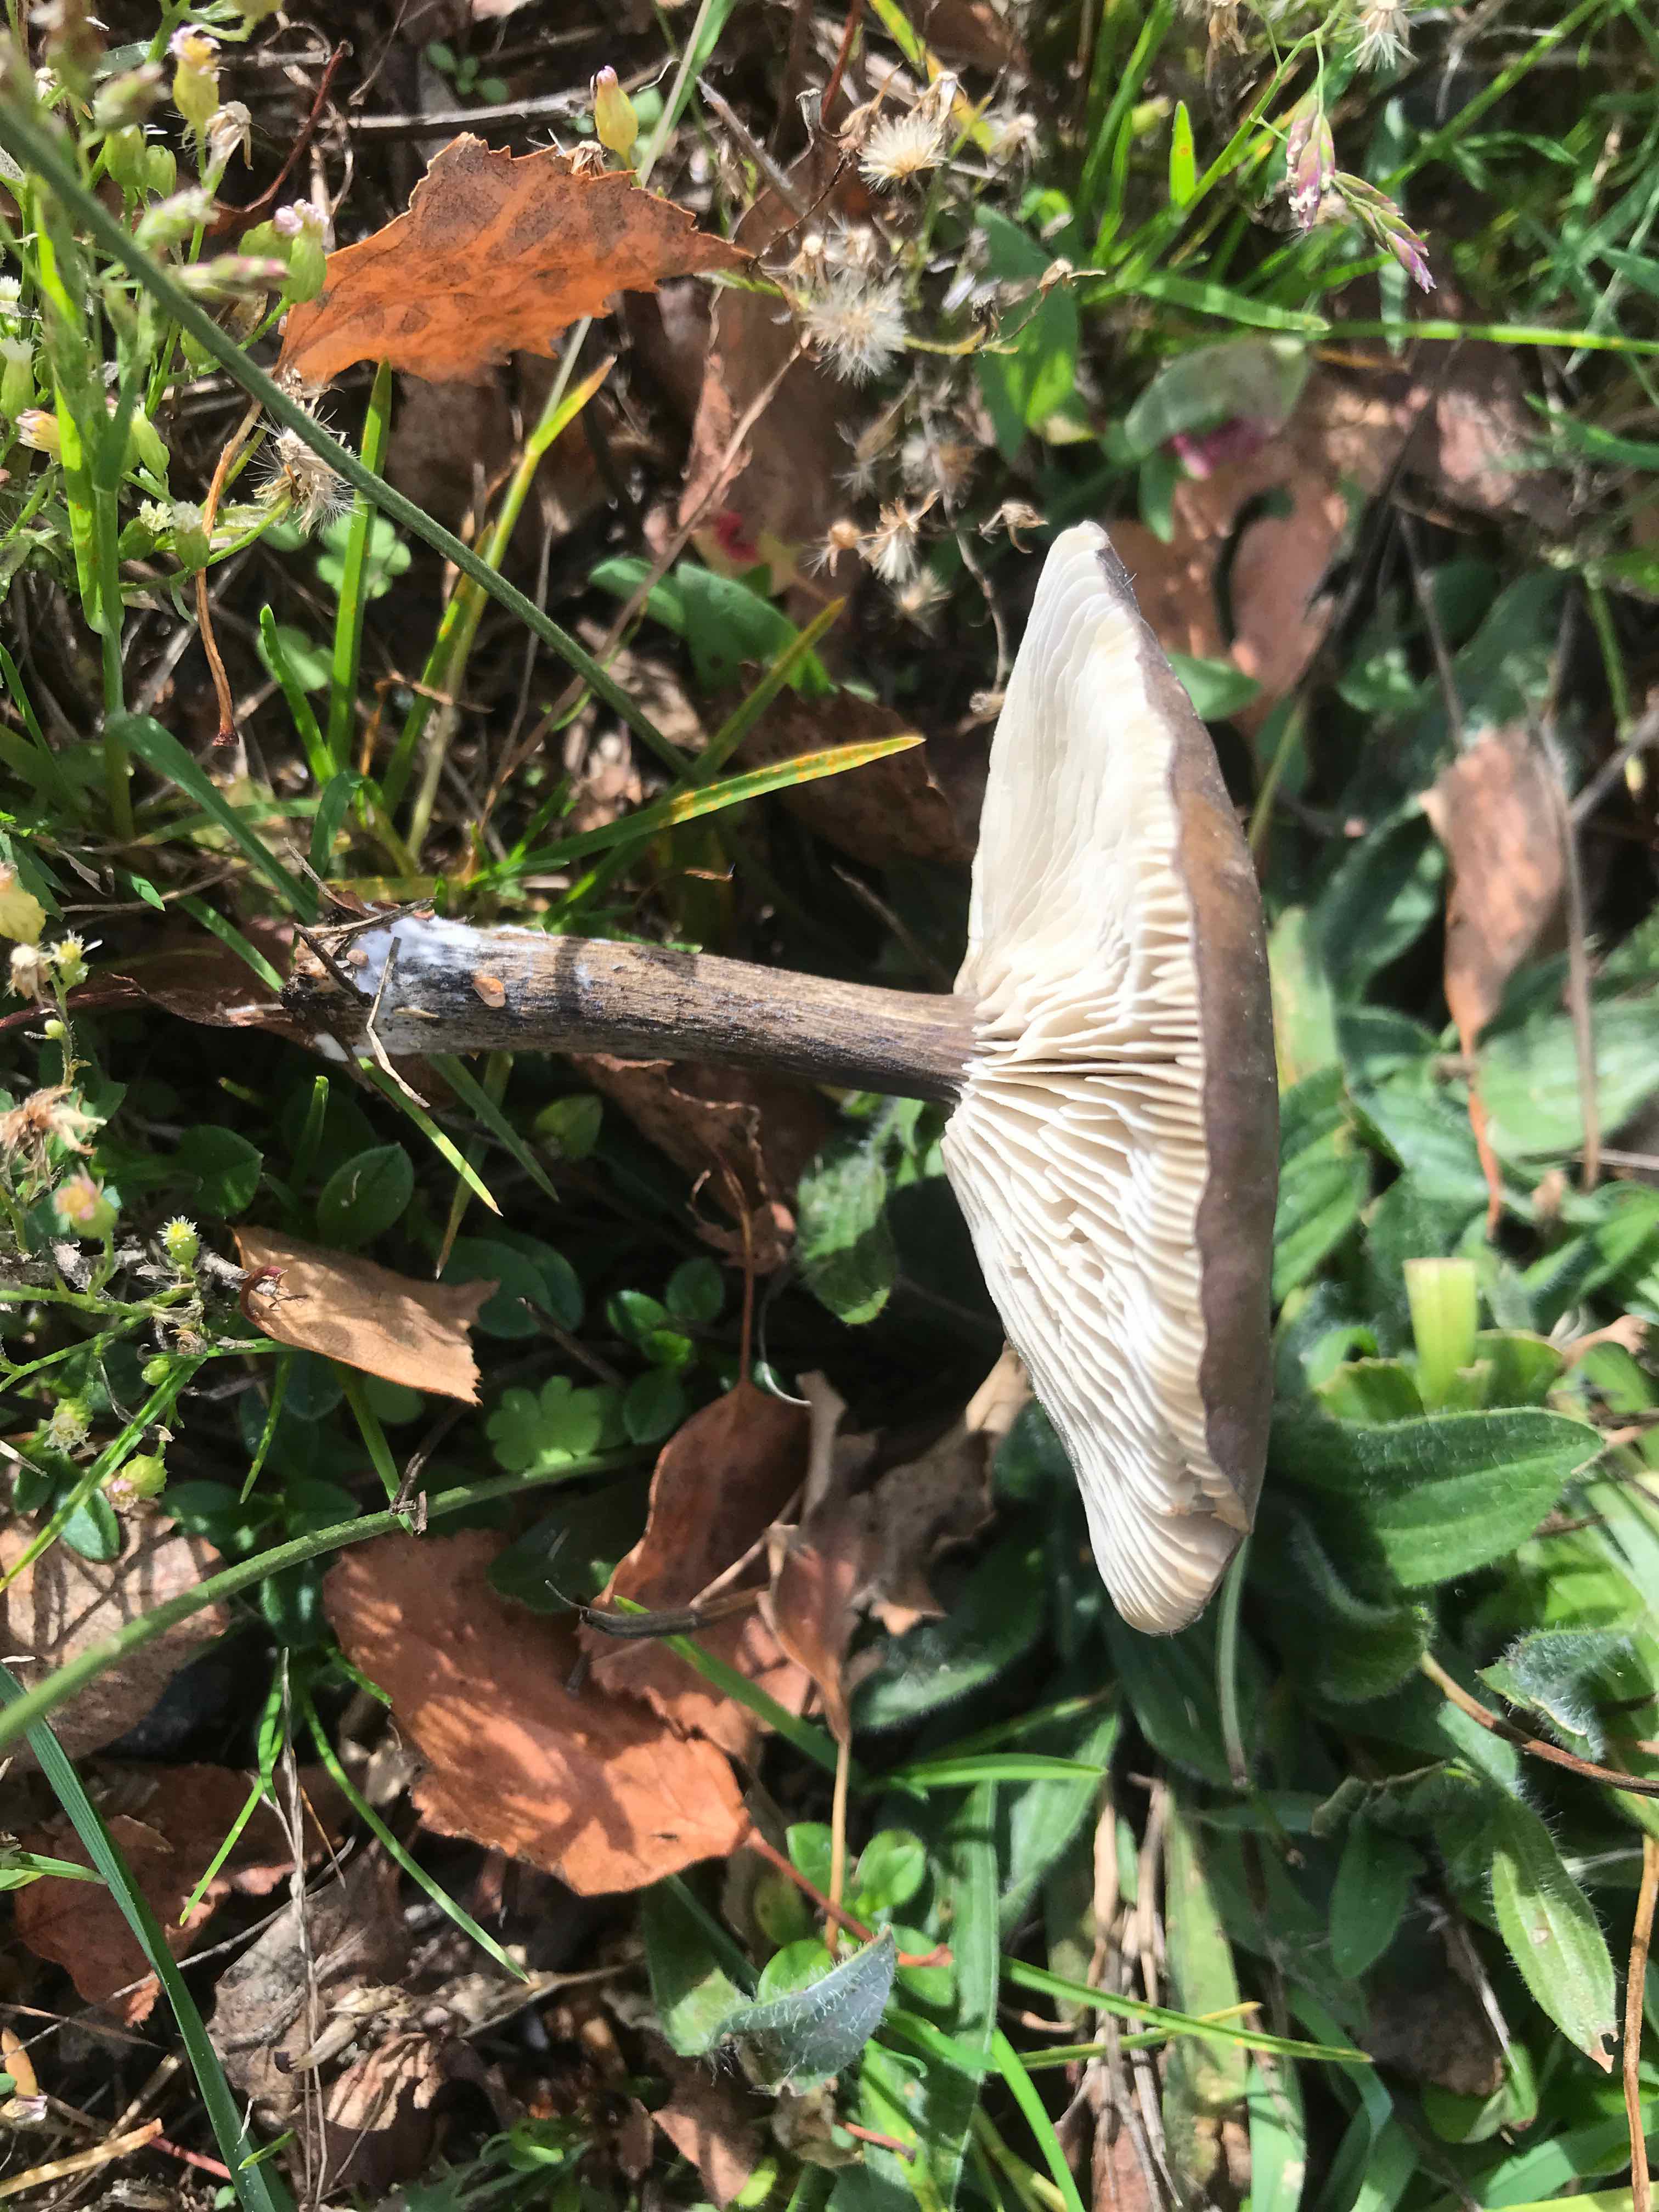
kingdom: Fungi
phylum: Basidiomycota
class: Agaricomycetes
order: Agaricales
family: Tricholomataceae
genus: Melanoleuca
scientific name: Melanoleuca
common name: munkehat
